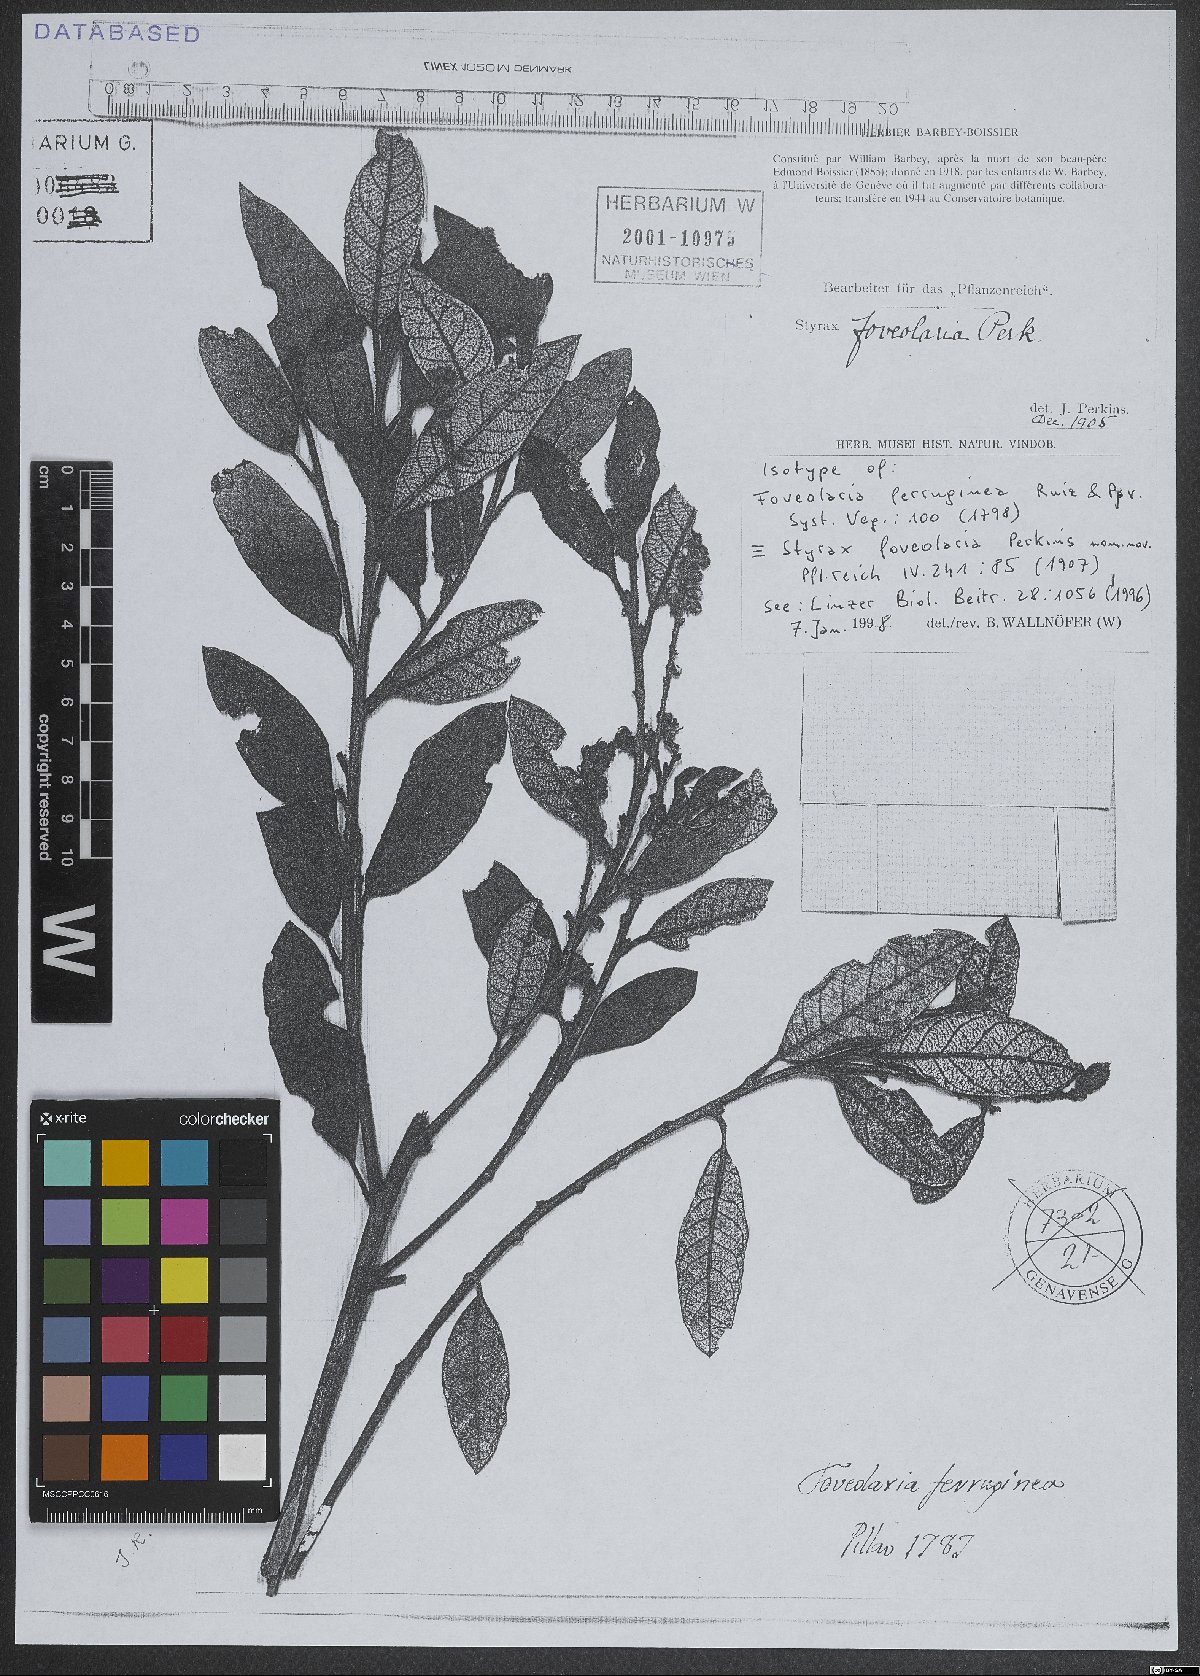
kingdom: Plantae
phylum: Tracheophyta
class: Magnoliopsida
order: Ericales
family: Styracaceae
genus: Styrax
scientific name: Styrax racemosus
